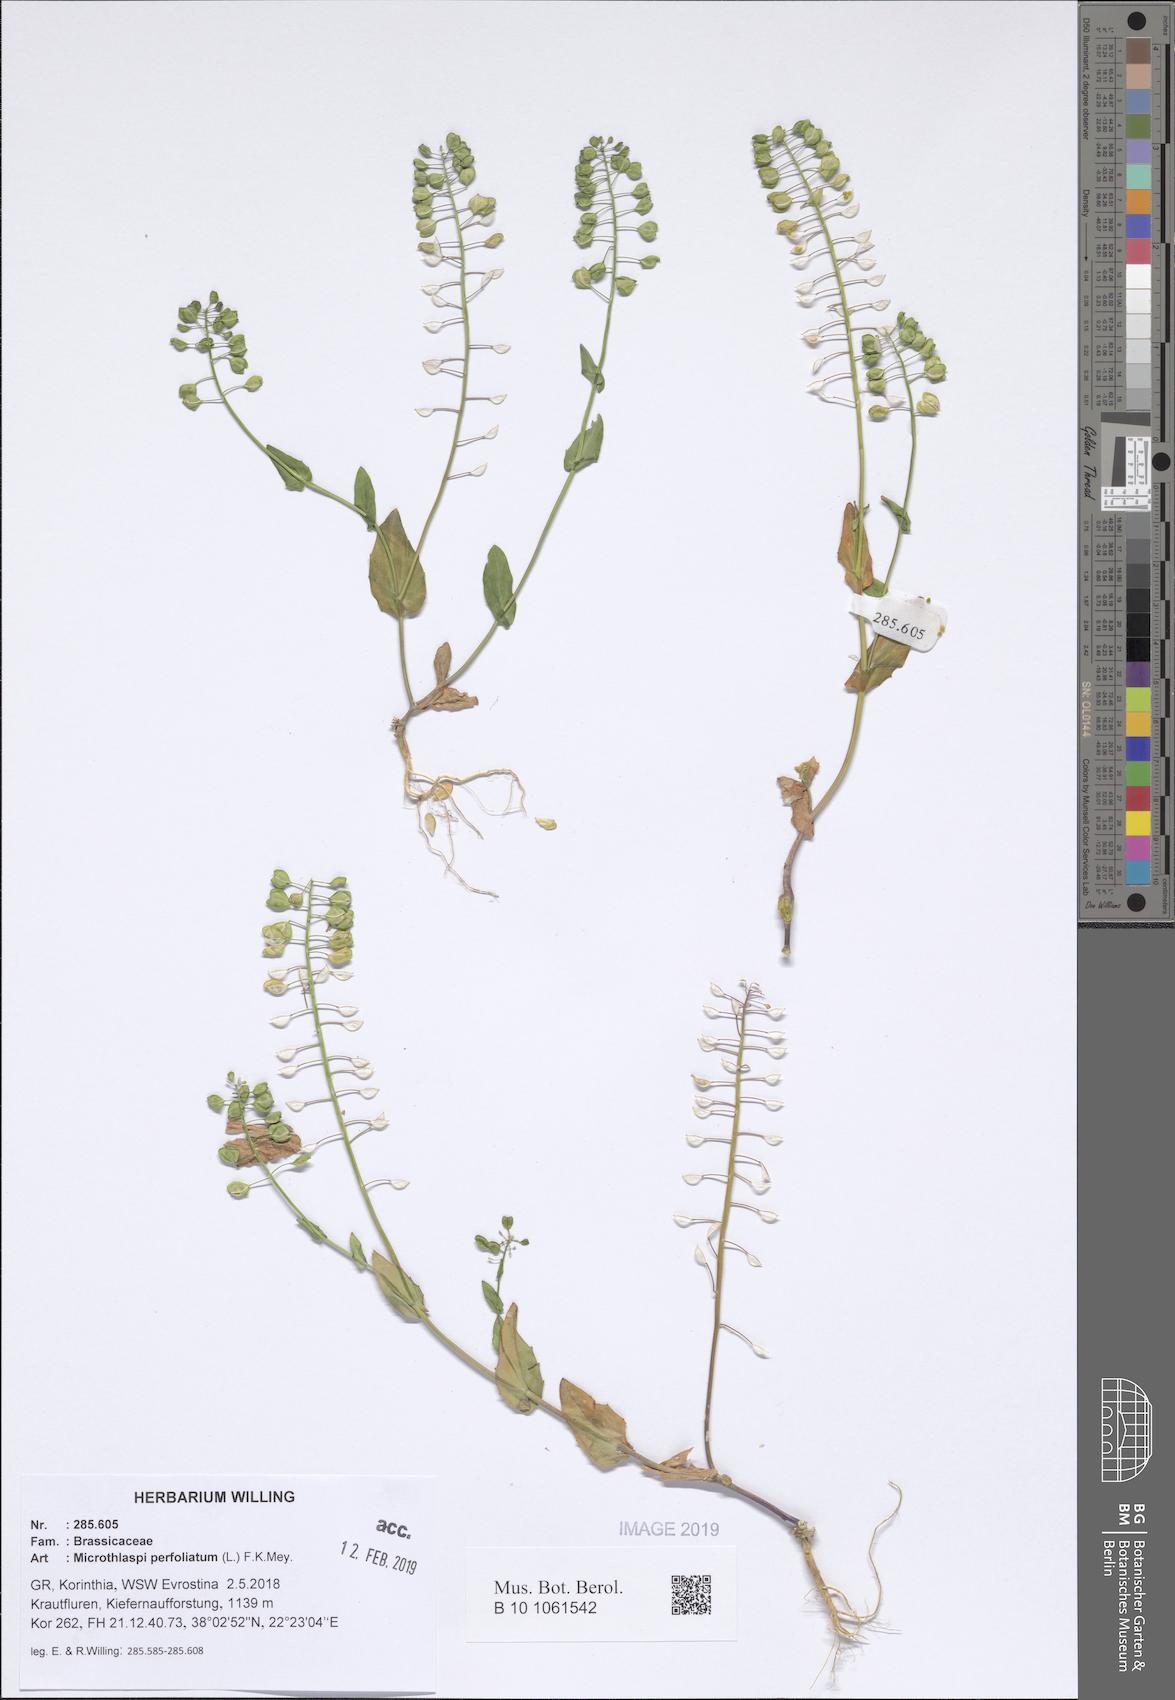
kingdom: Plantae
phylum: Tracheophyta
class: Magnoliopsida
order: Brassicales
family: Brassicaceae
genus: Noccaea
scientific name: Noccaea perfoliata
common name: Perfoliate pennycress
